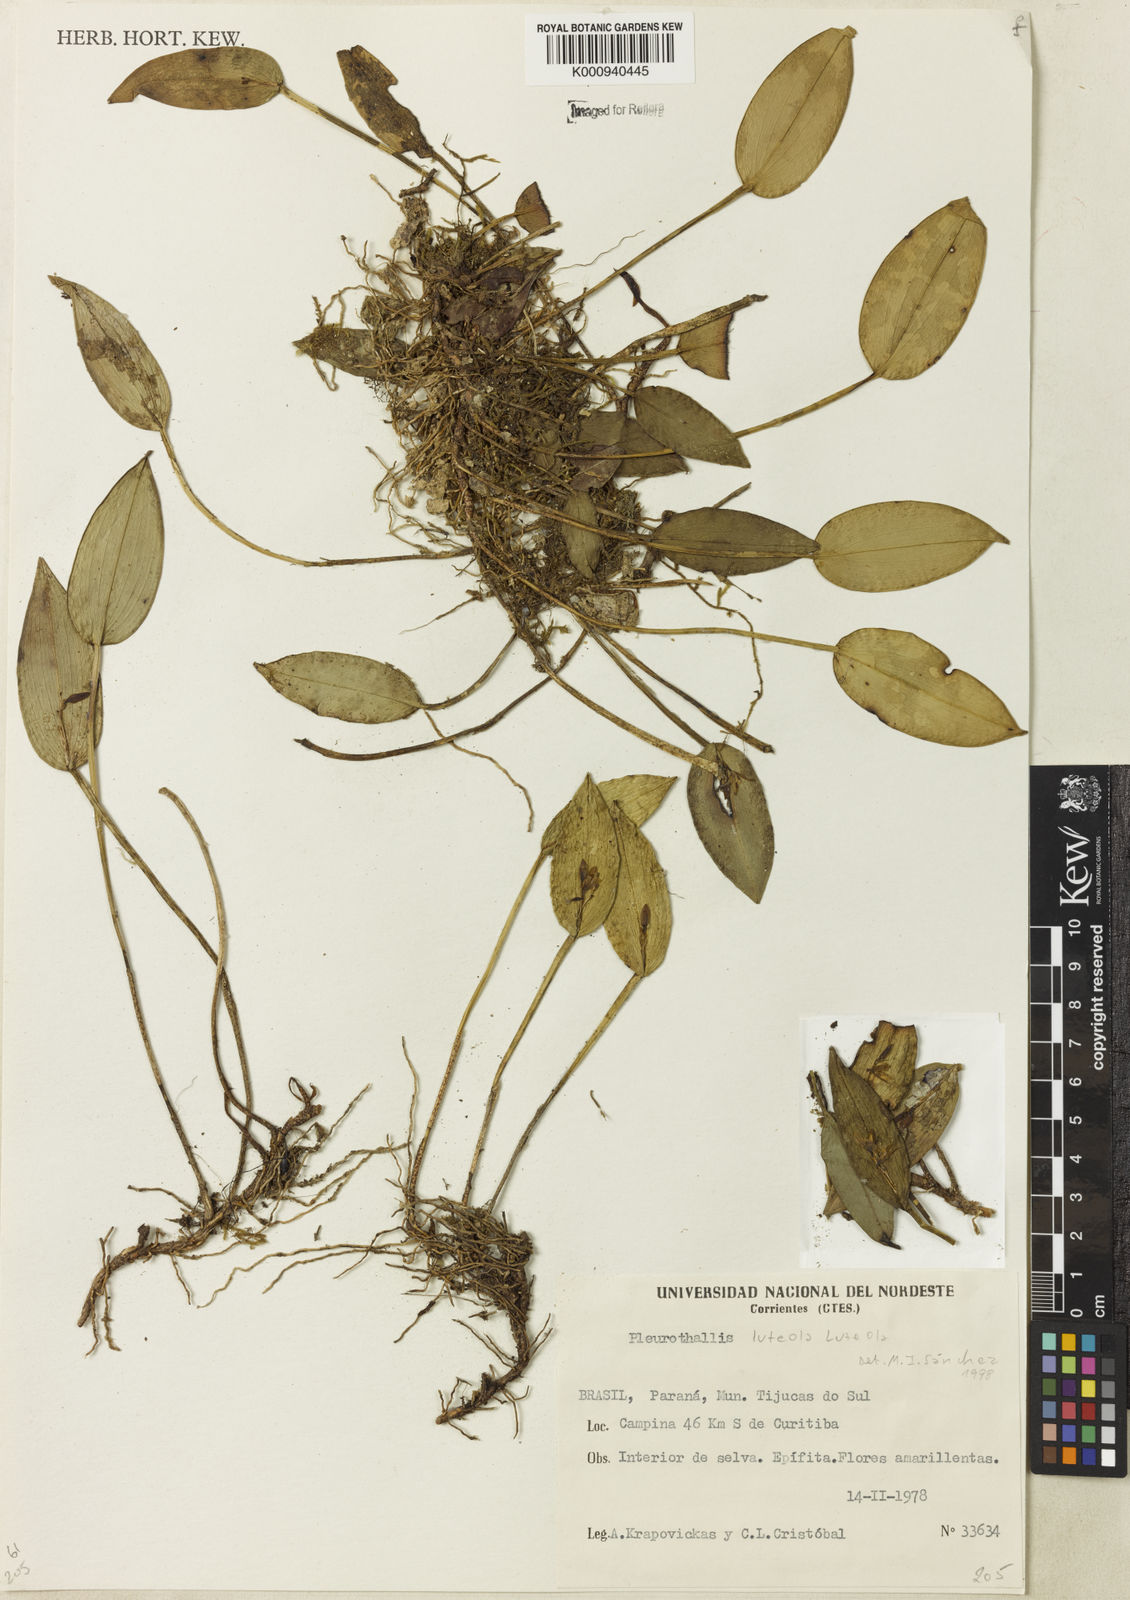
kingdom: Plantae
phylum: Tracheophyta
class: Liliopsida
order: Asparagales
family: Orchidaceae
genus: Acianthera
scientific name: Acianthera luteola
